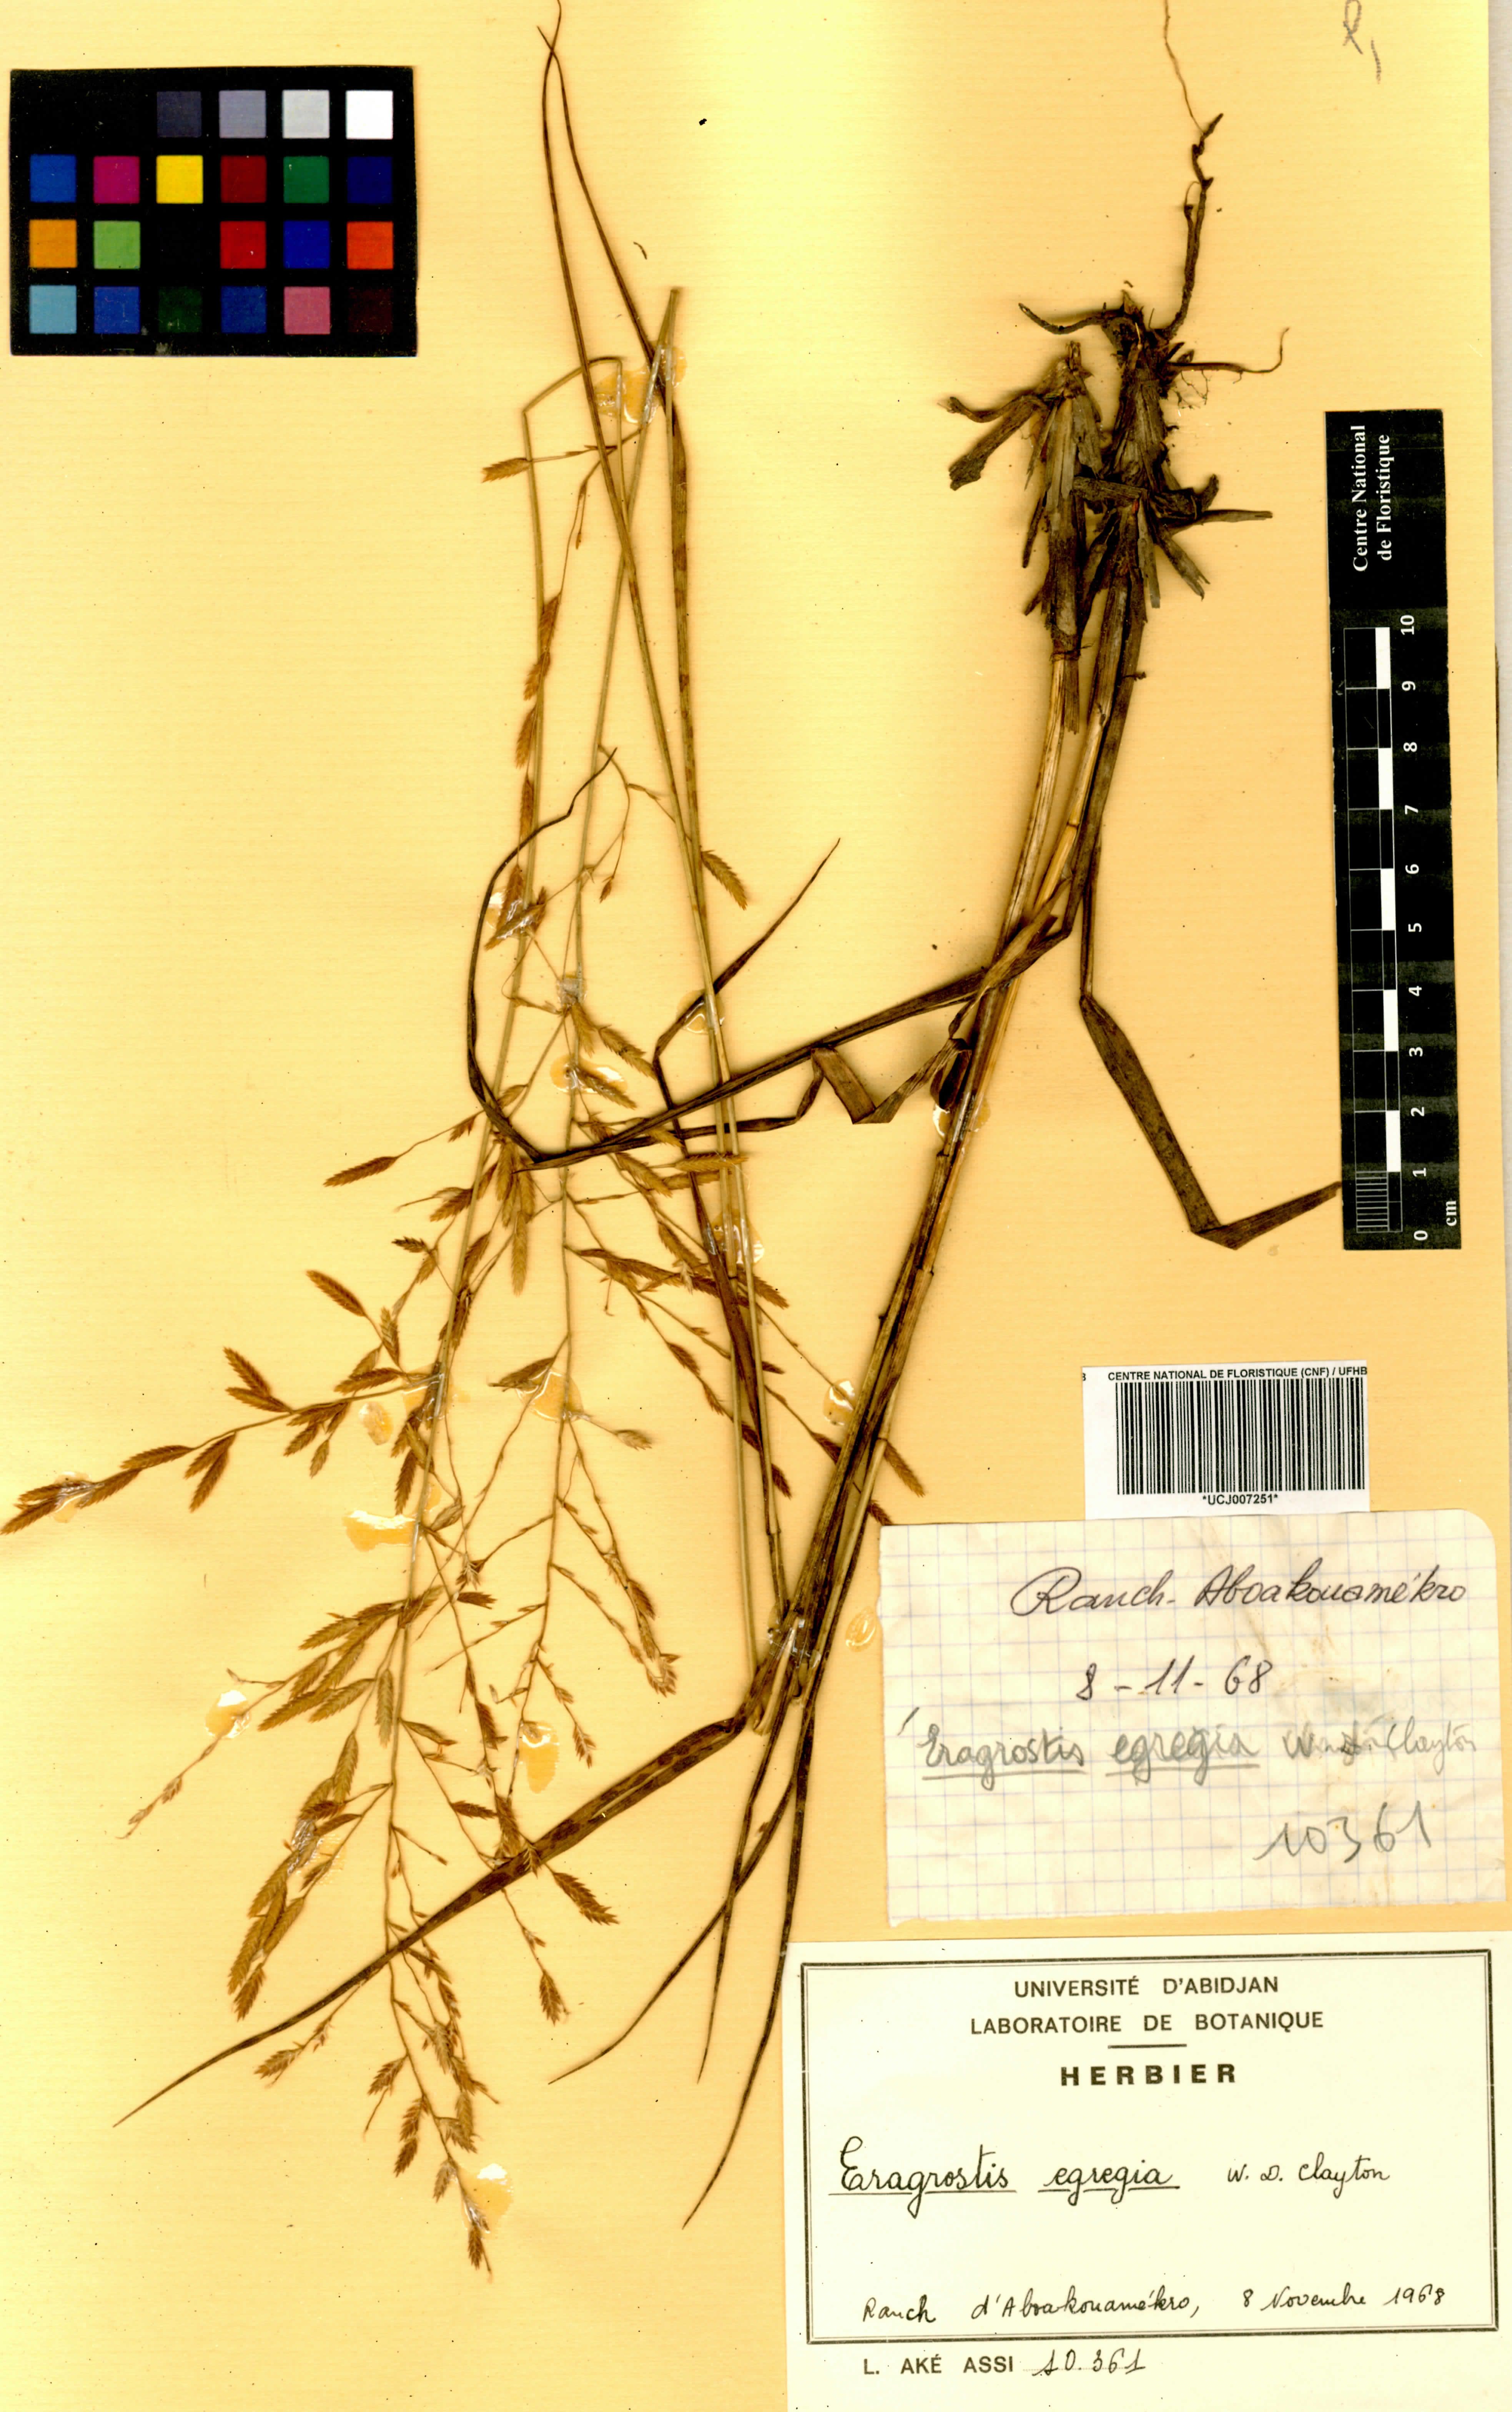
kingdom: Plantae
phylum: Tracheophyta
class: Liliopsida
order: Poales
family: Poaceae
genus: Eragrostis
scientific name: Eragrostis egregia
